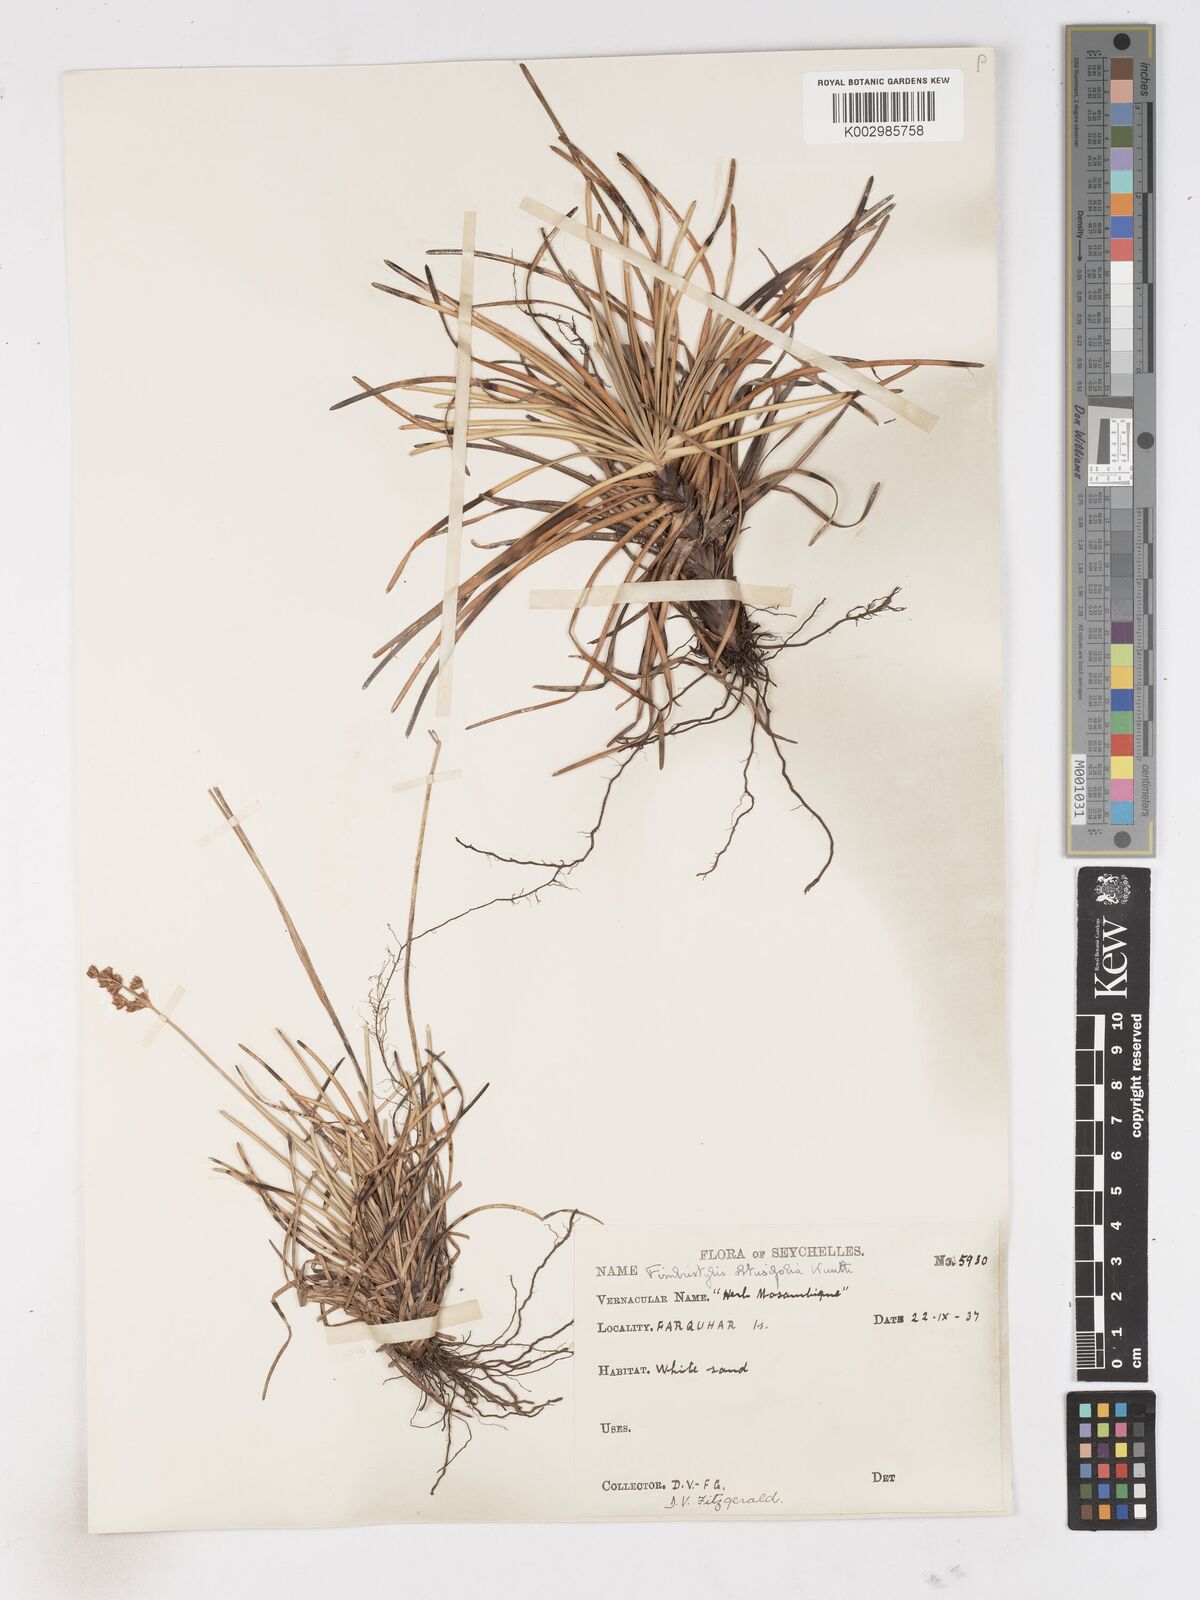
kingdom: Plantae
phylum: Tracheophyta
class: Liliopsida
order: Poales
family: Cyperaceae
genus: Fimbristylis
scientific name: Fimbristylis cymosa
